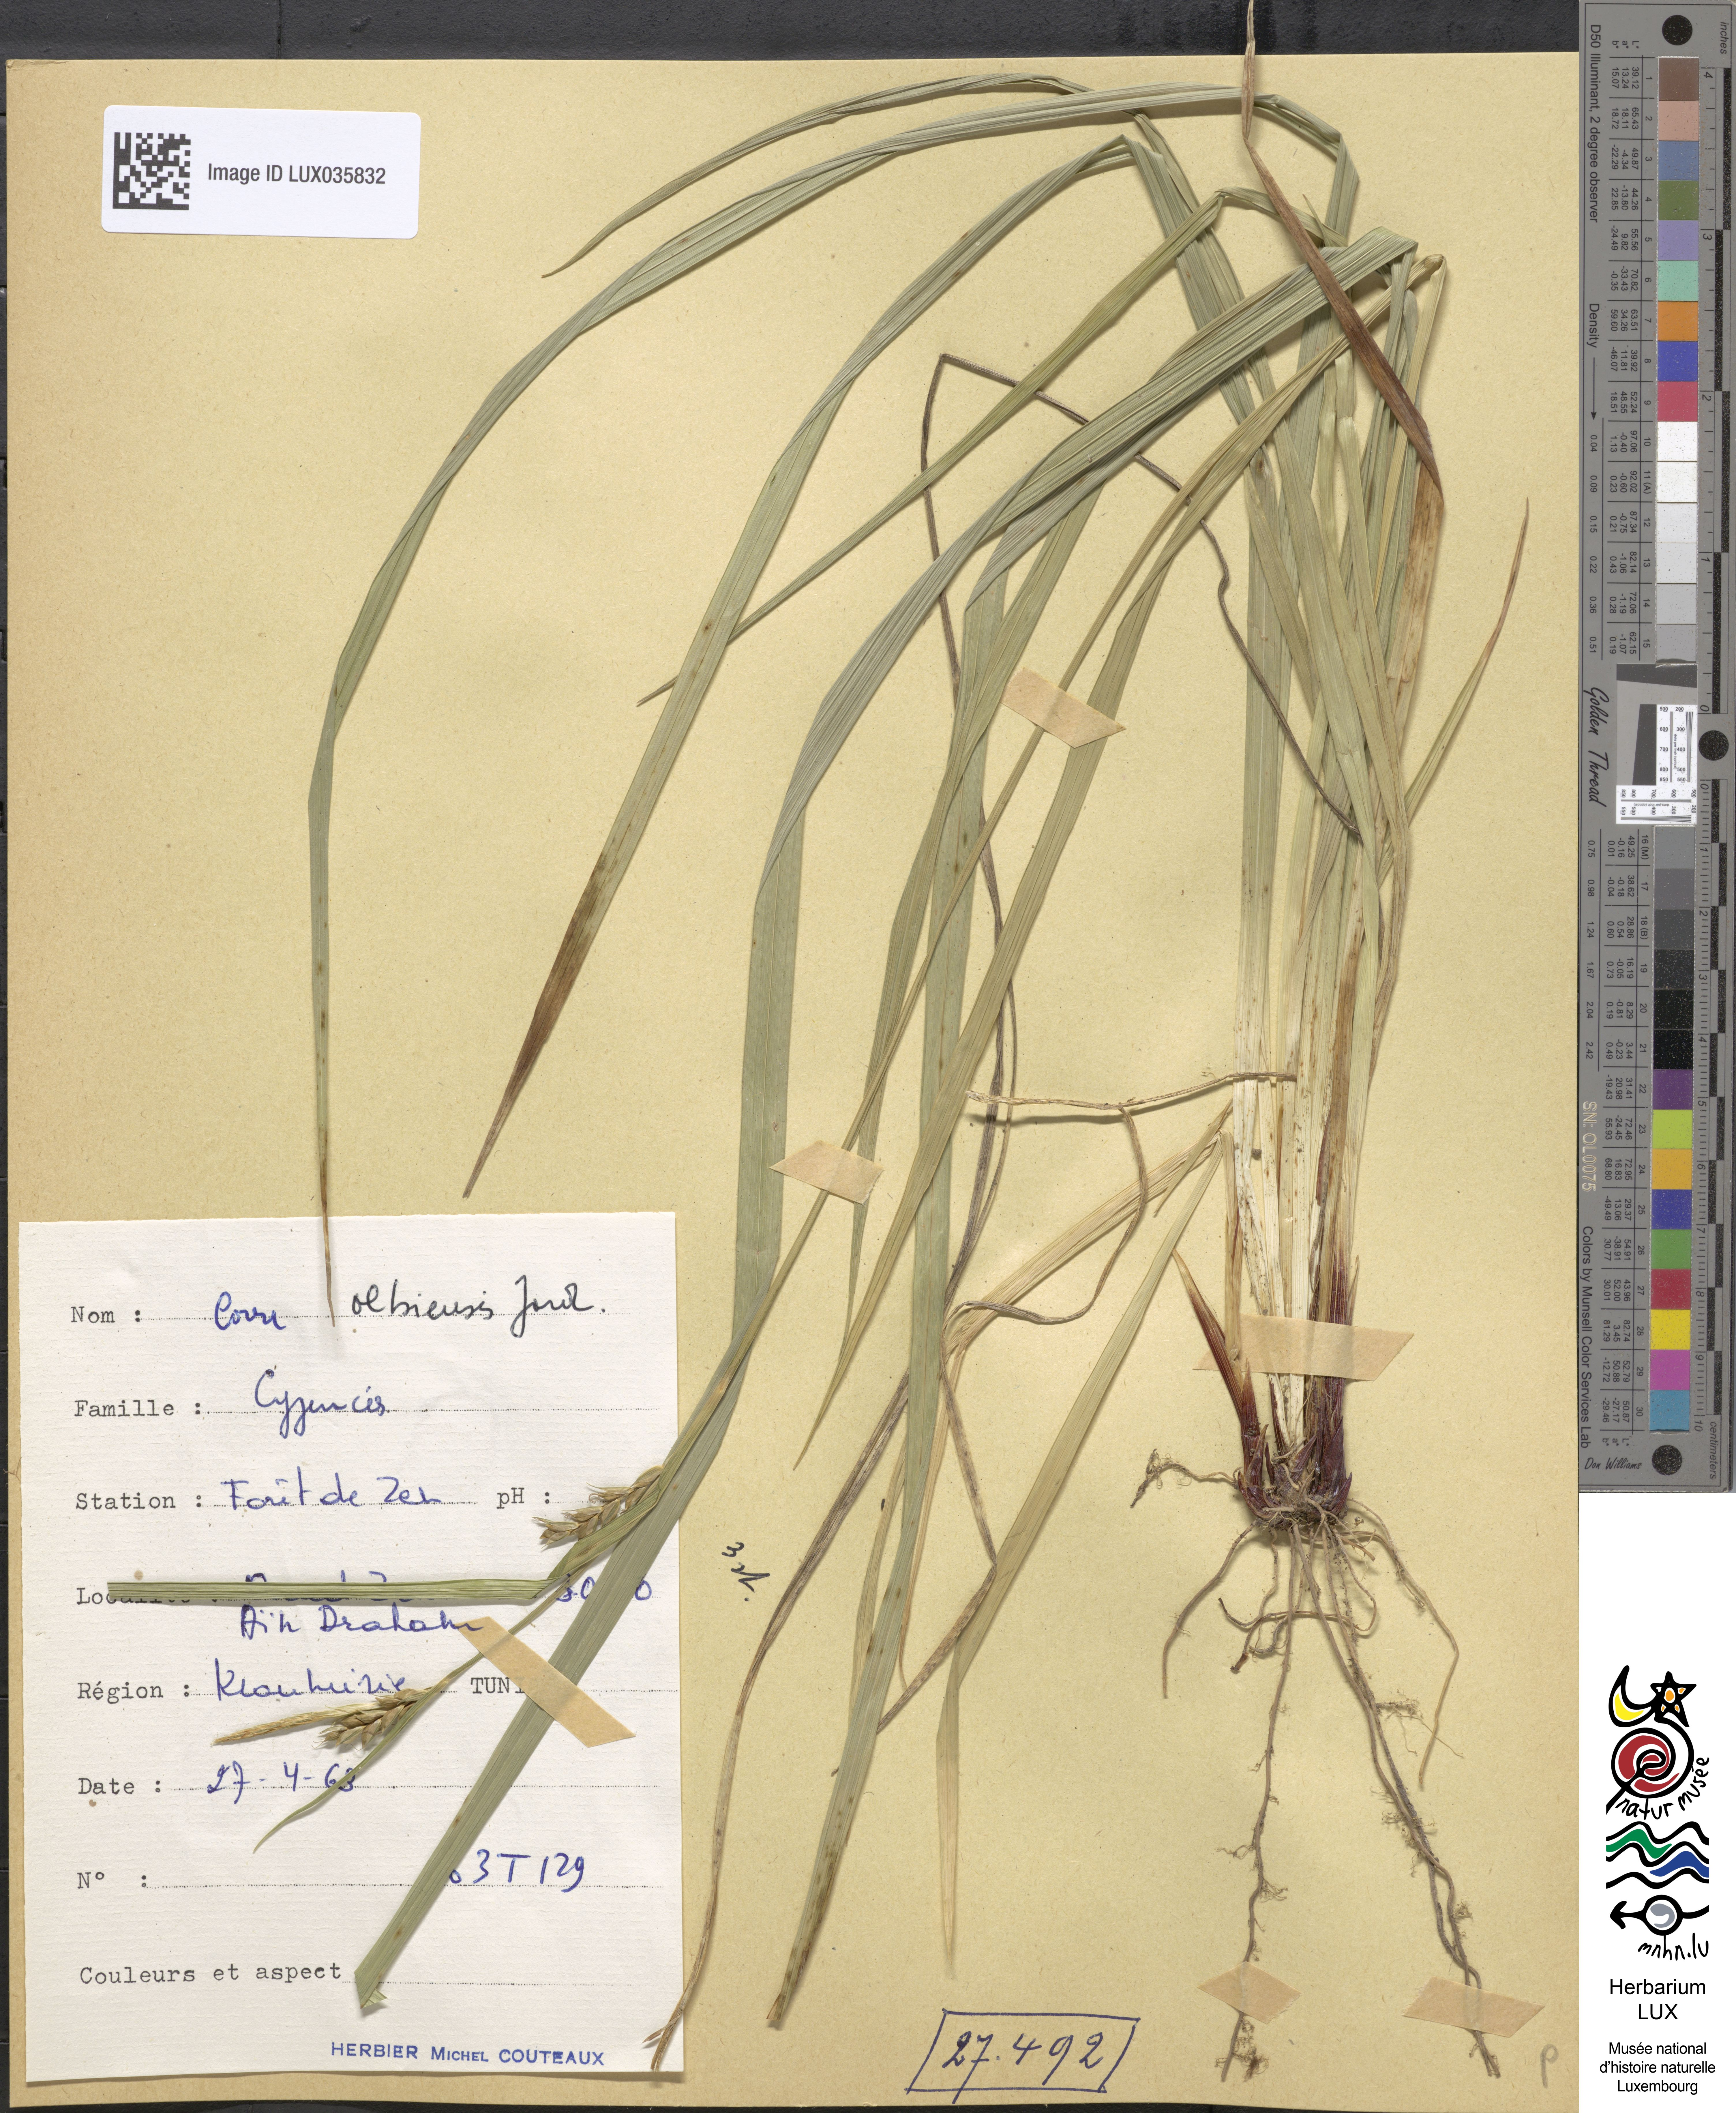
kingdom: Plantae
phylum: Tracheophyta
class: Liliopsida
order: Poales
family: Cyperaceae
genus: Carex
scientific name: Carex olbiensis
